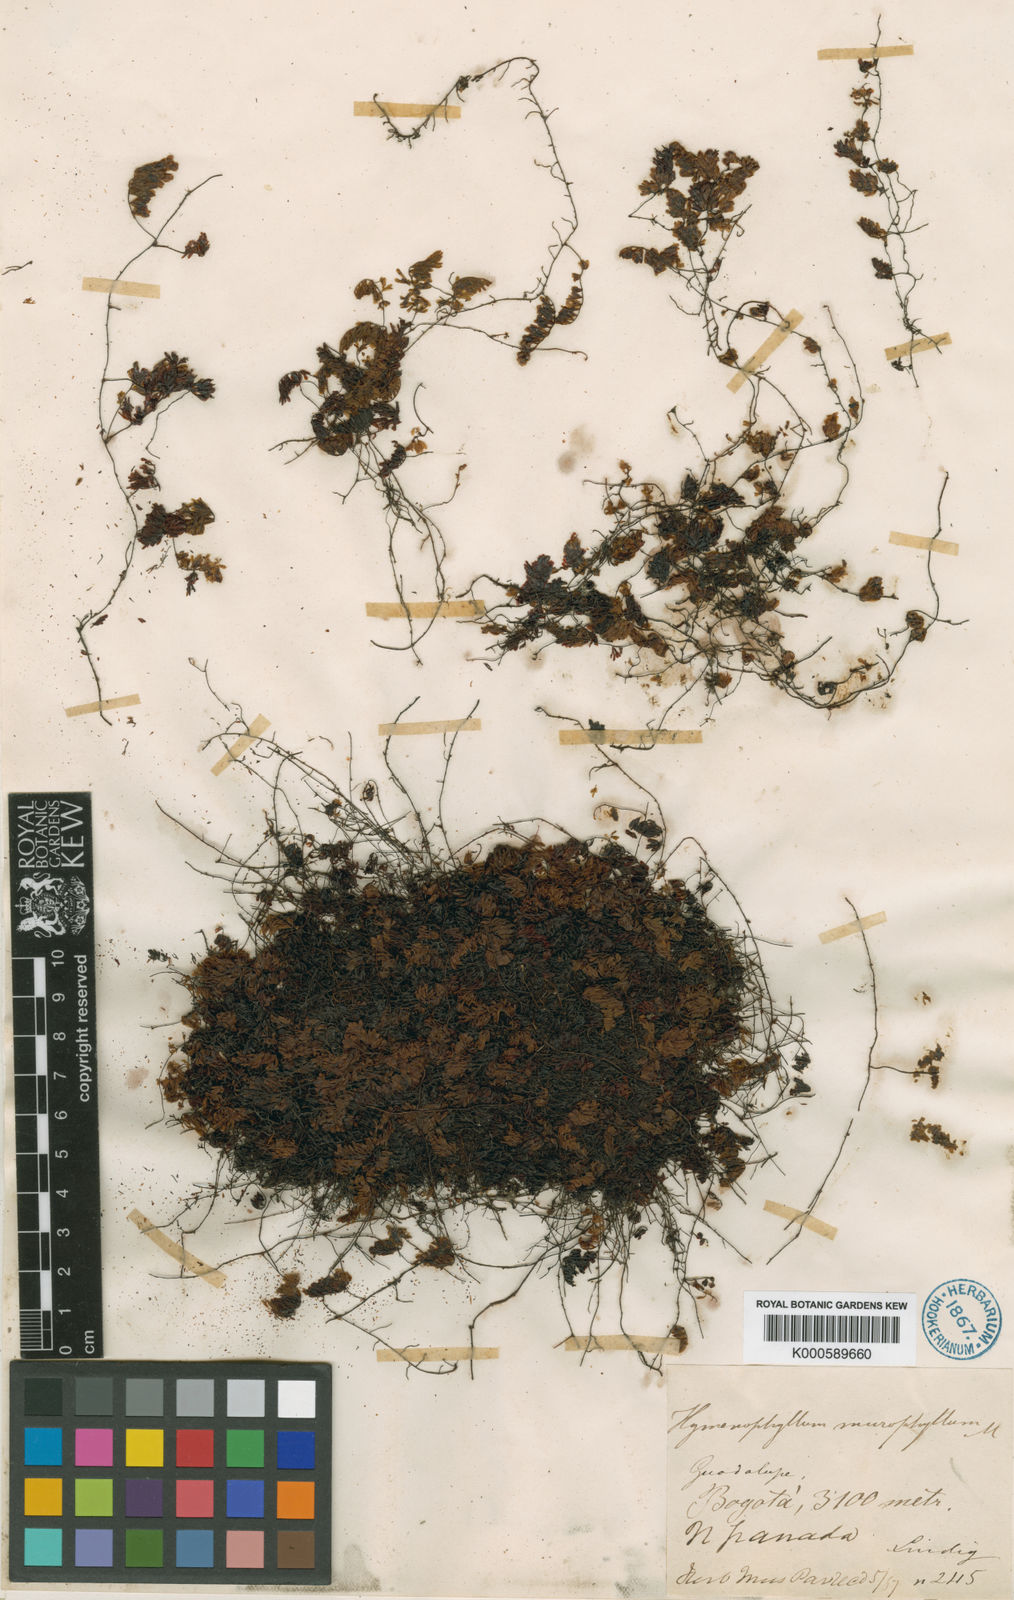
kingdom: Plantae
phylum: Tracheophyta
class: Polypodiopsida
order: Hymenophyllales
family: Hymenophyllaceae
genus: Hymenophyllum
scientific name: Hymenophyllum microphyllum
